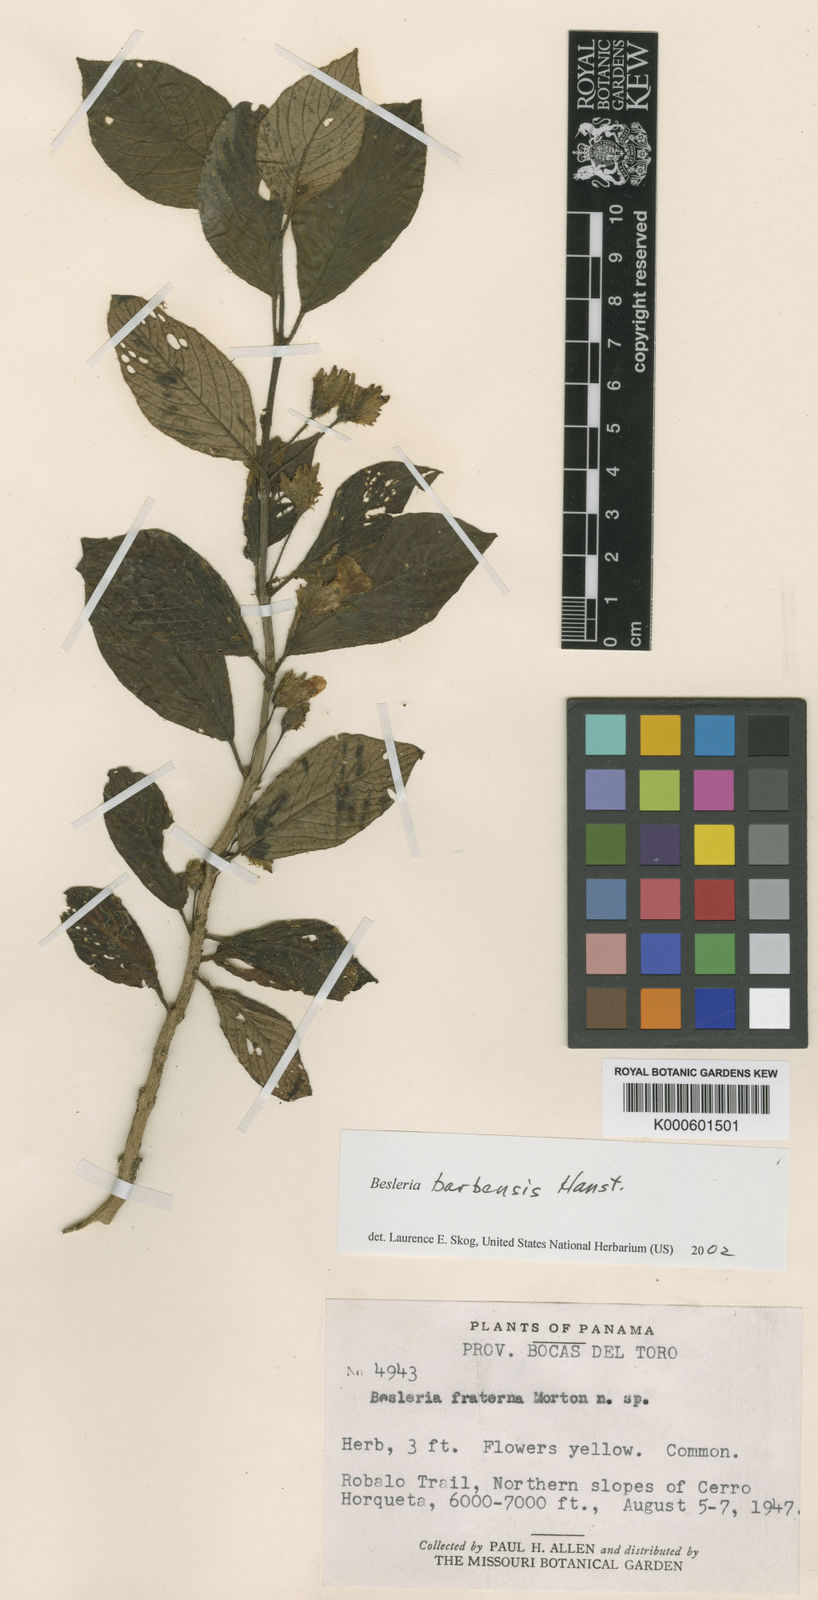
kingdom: Plantae
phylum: Tracheophyta
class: Magnoliopsida
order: Lamiales
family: Gesneriaceae
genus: Besleria
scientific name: Besleria
